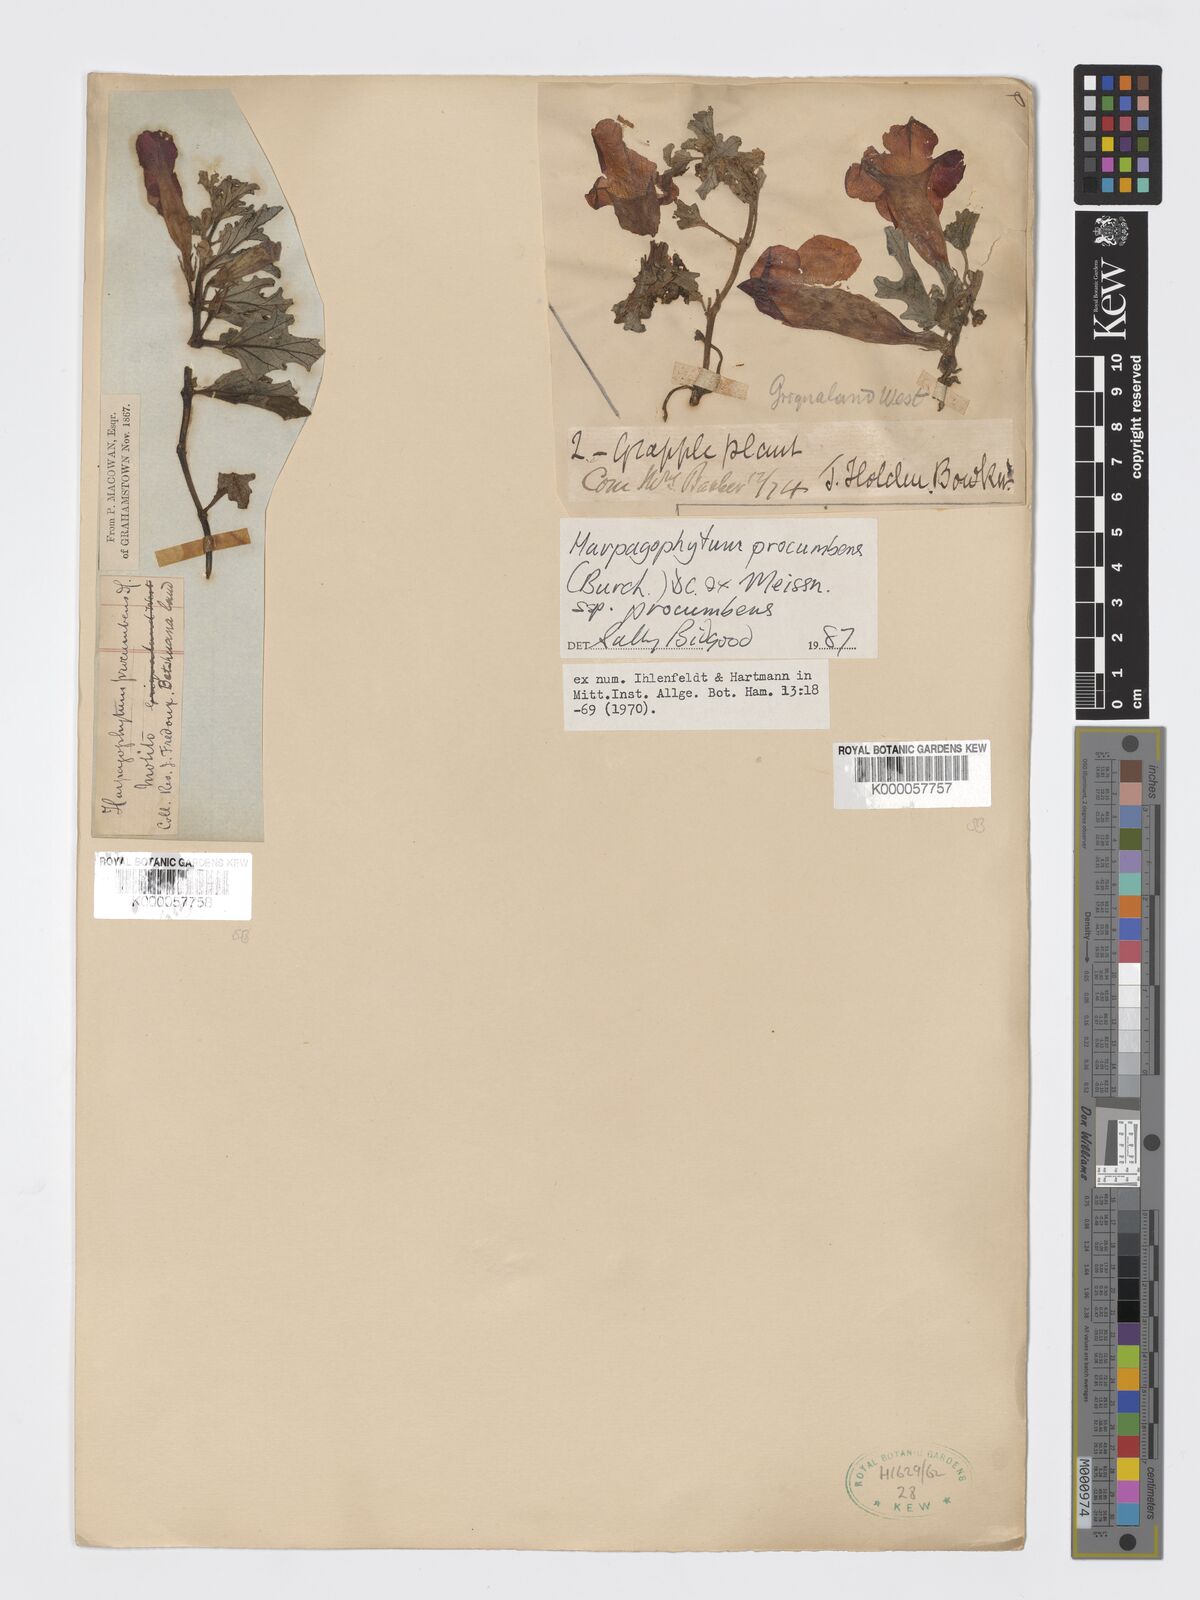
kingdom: Plantae
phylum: Tracheophyta
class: Magnoliopsida
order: Lamiales
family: Pedaliaceae
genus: Harpagophytum
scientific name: Harpagophytum procumbens
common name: Grappleplant
